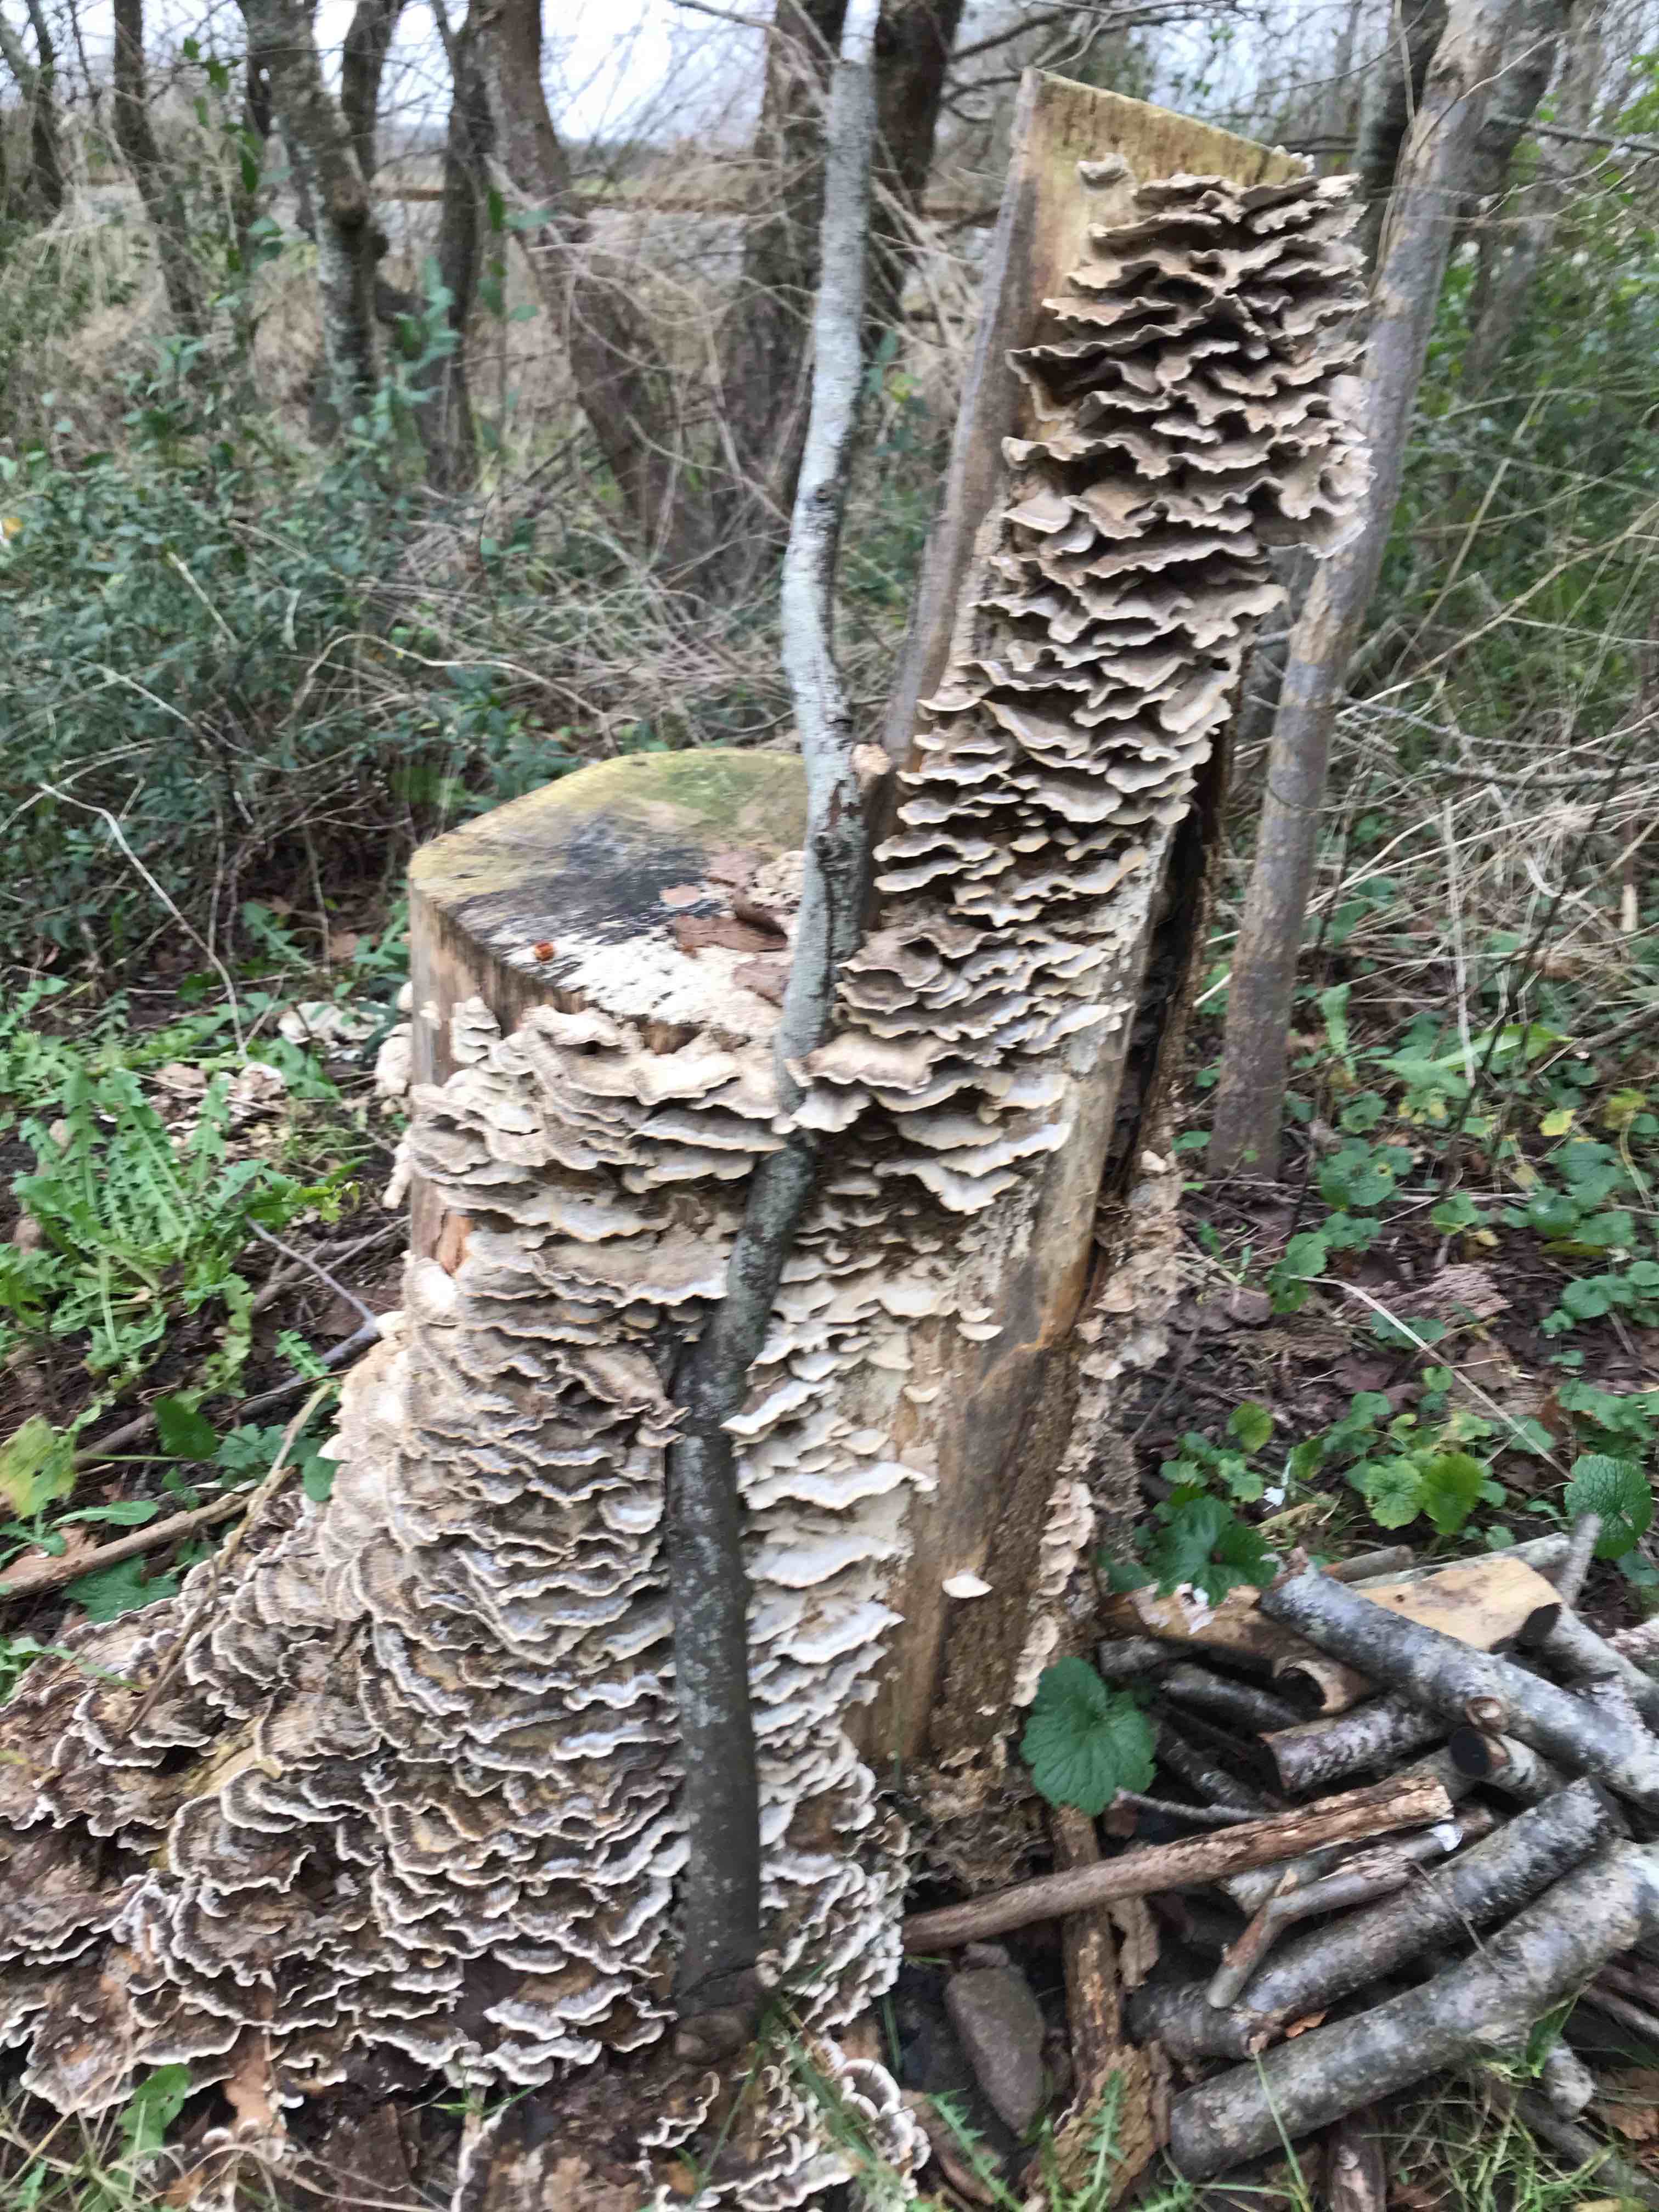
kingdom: Fungi
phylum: Basidiomycota
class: Agaricomycetes
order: Polyporales
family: Phanerochaetaceae
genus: Bjerkandera
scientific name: Bjerkandera adusta
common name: sveden sodporesvamp
